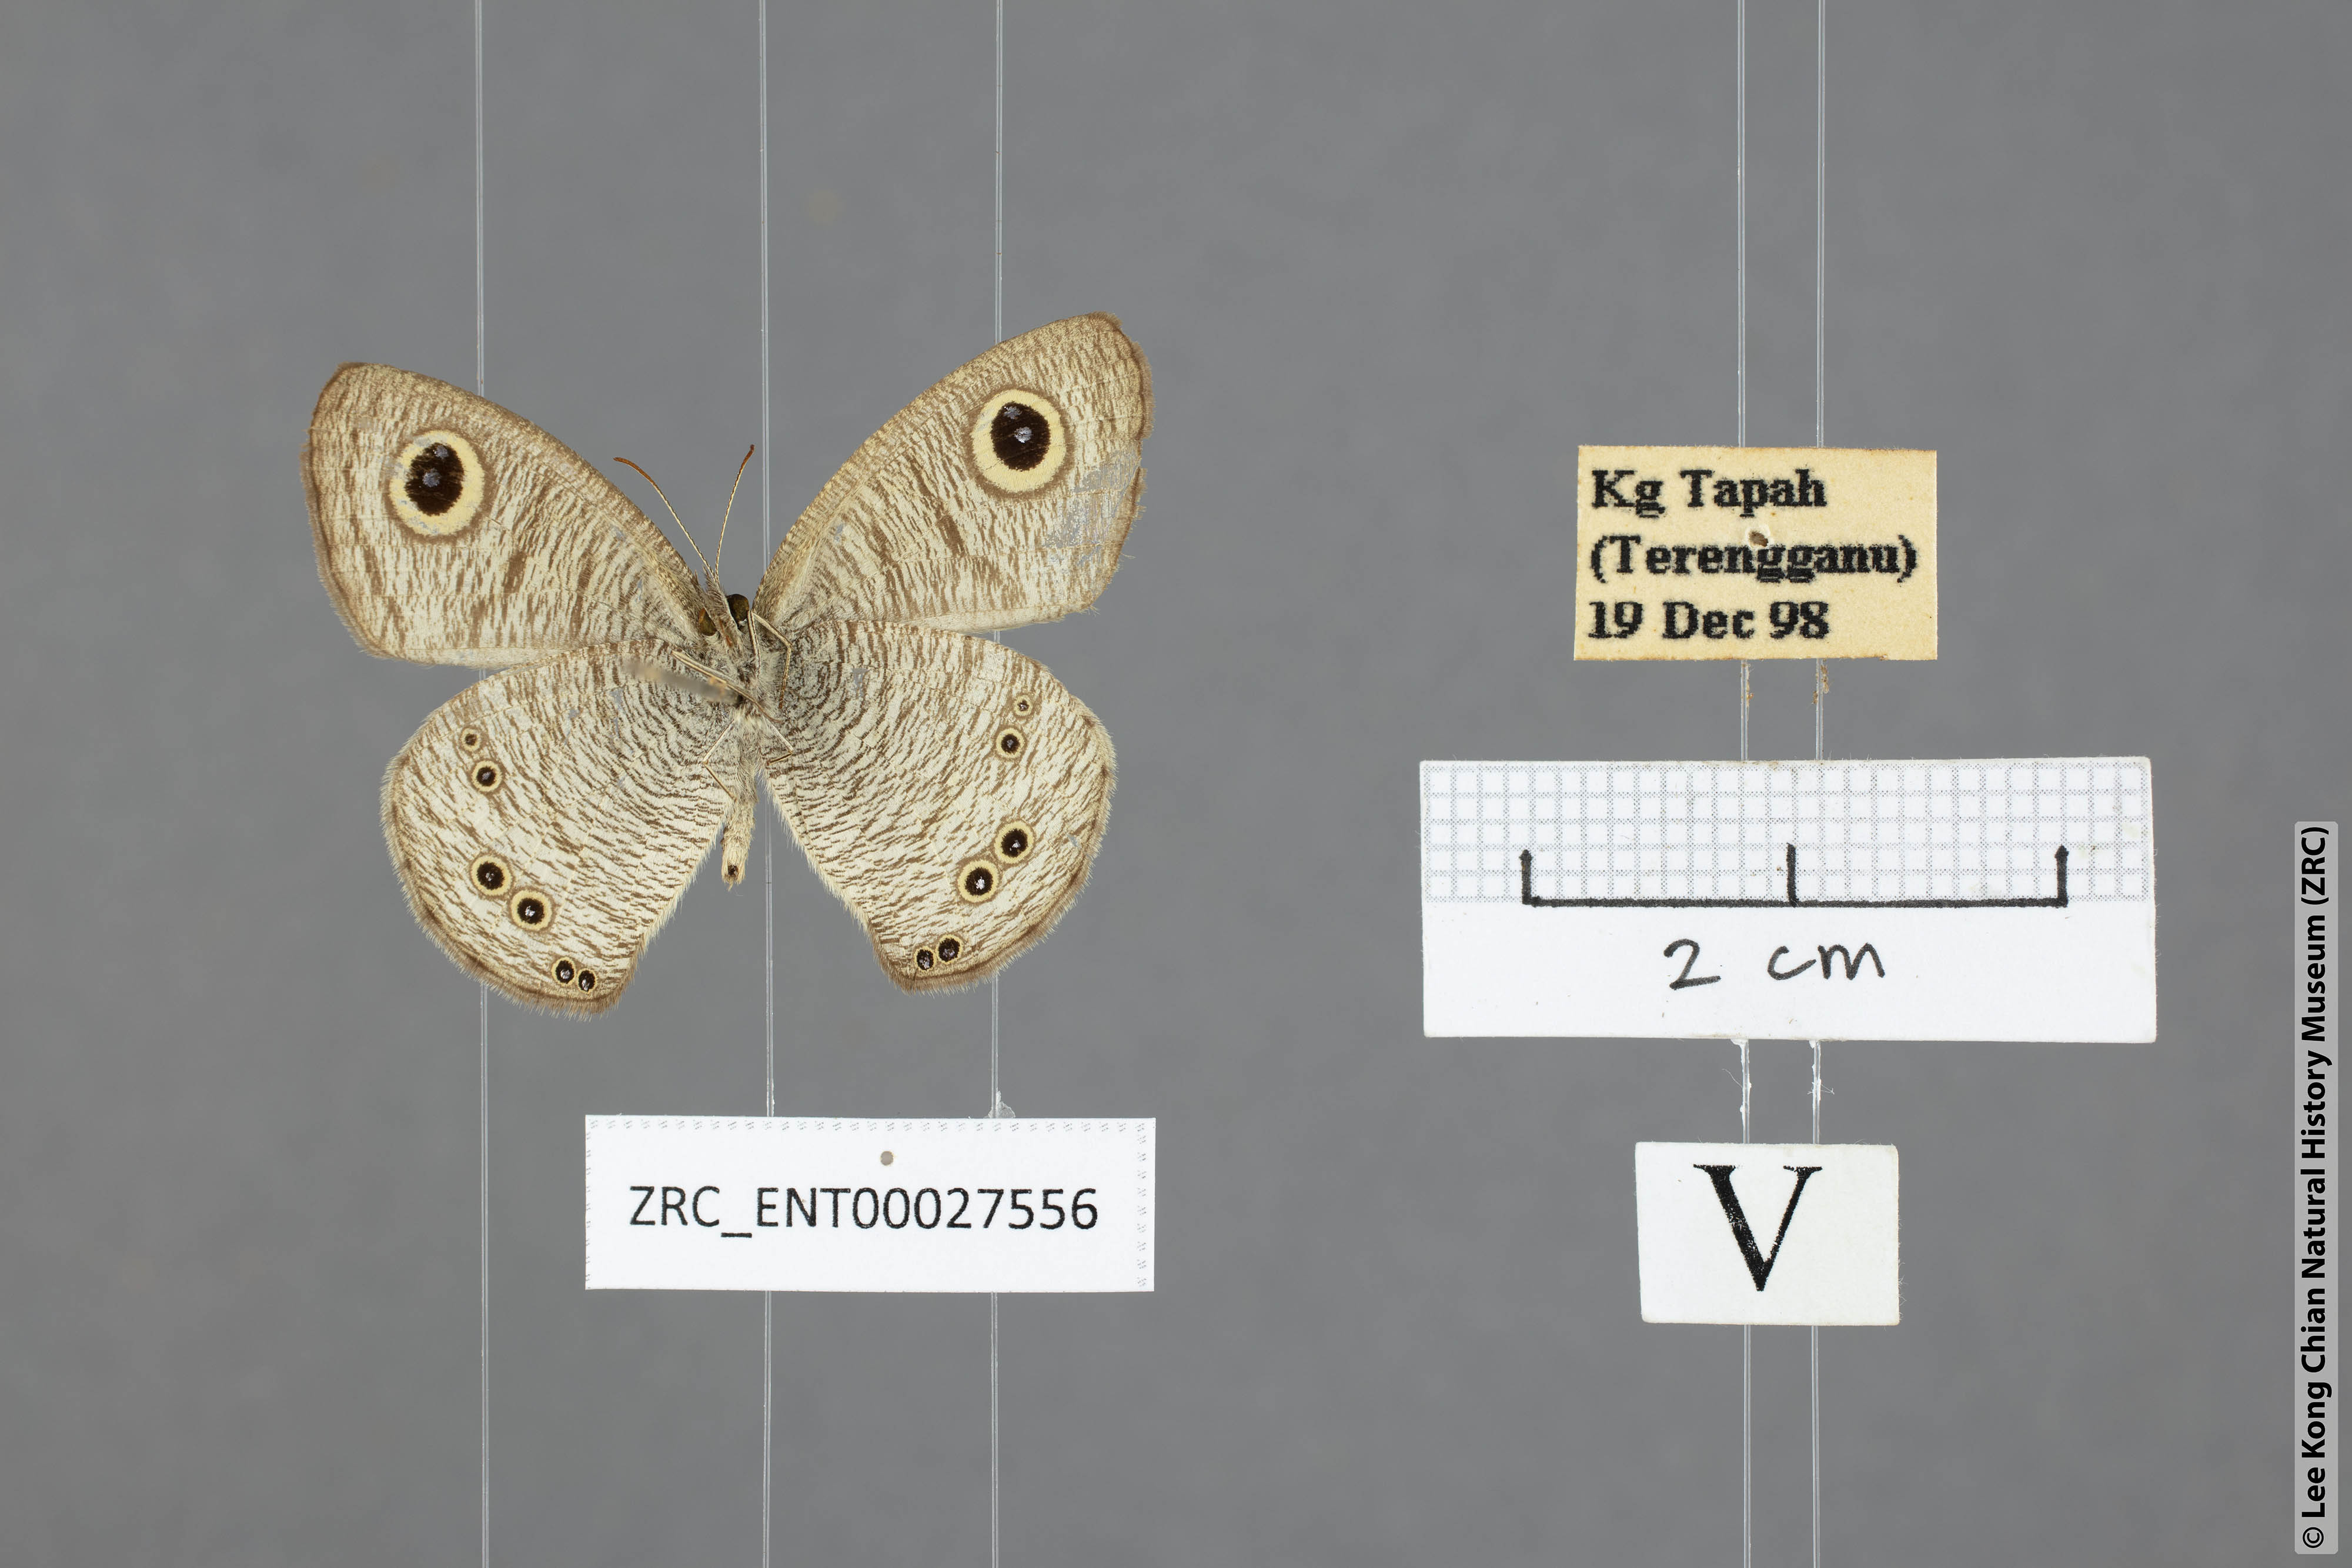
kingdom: Animalia
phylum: Arthropoda
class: Insecta
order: Lepidoptera
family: Nymphalidae
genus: Ypthima
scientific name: Ypthima baldus
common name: Common five-ring
